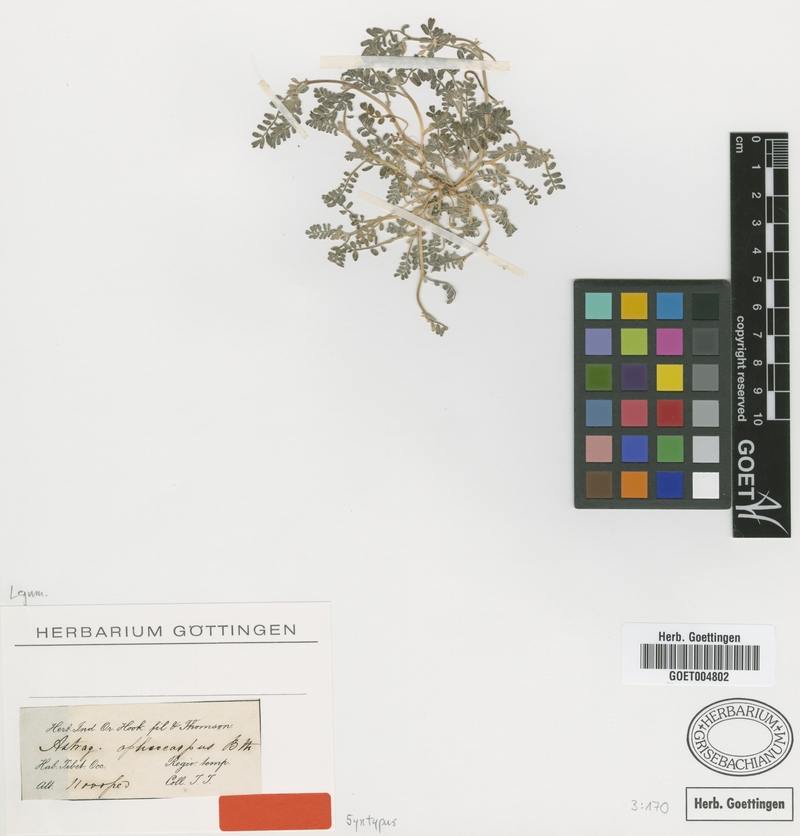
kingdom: Plantae
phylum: Tracheophyta
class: Magnoliopsida
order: Fabales
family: Fabaceae
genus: Astragalus
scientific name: Astragalus ophiocarpus
